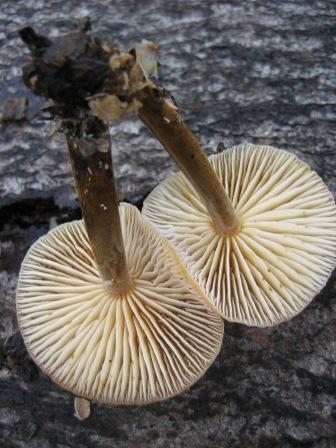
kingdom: Fungi
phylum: Basidiomycota
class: Agaricomycetes
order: Agaricales
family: Physalacriaceae
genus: Flammulina
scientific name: Flammulina velutipes
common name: gul fløjlsfod
